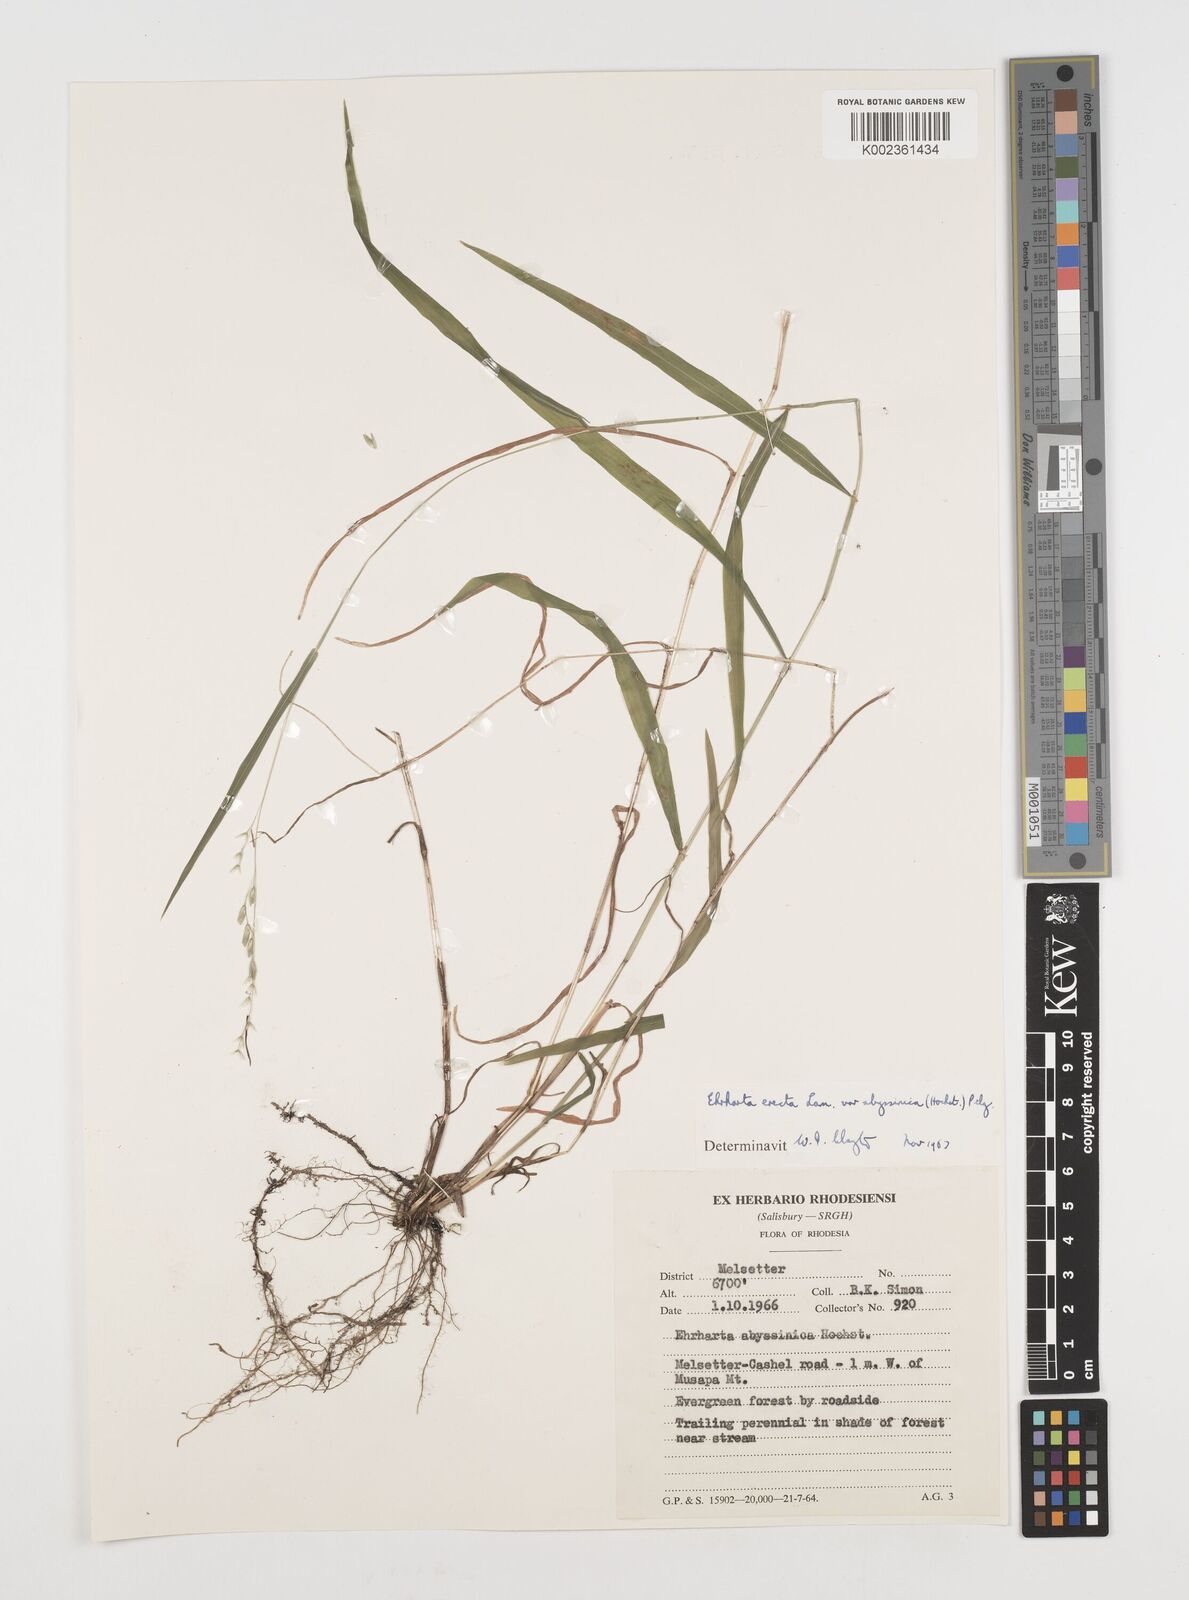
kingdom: Plantae
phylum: Tracheophyta
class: Liliopsida
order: Poales
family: Poaceae
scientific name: Poaceae
